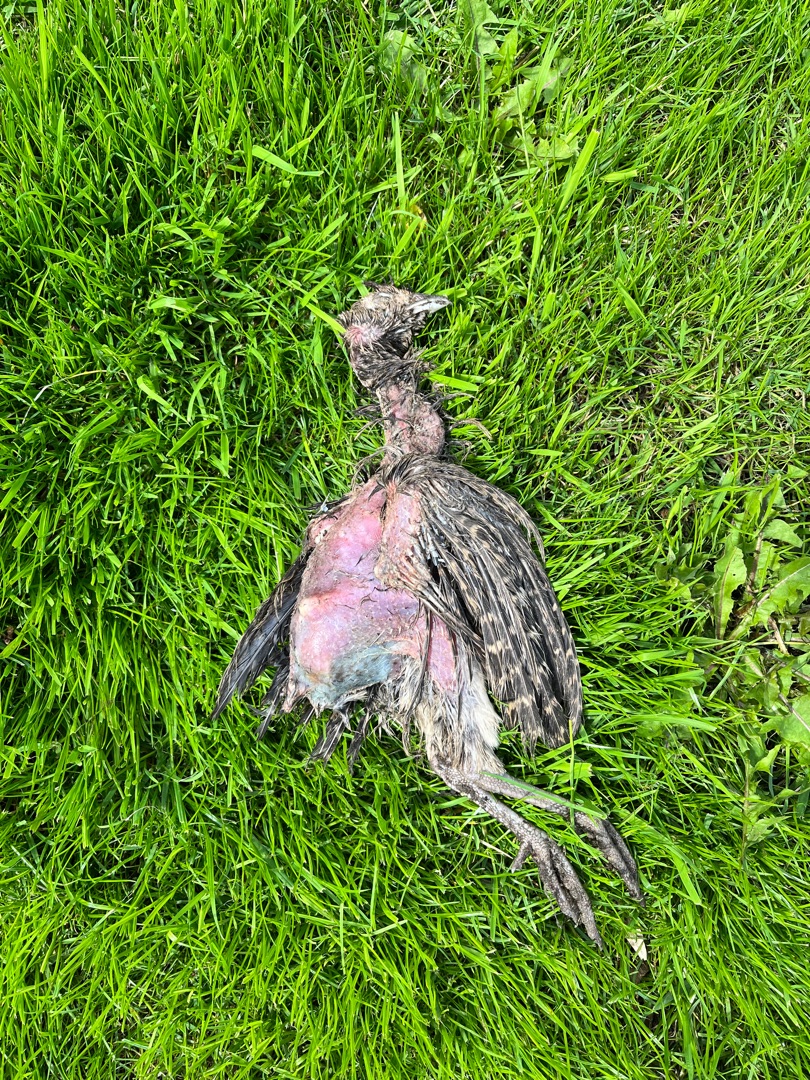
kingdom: Animalia
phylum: Chordata
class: Aves
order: Galliformes
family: Phasianidae
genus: Phasianus
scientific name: Phasianus colchicus
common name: Fasan
